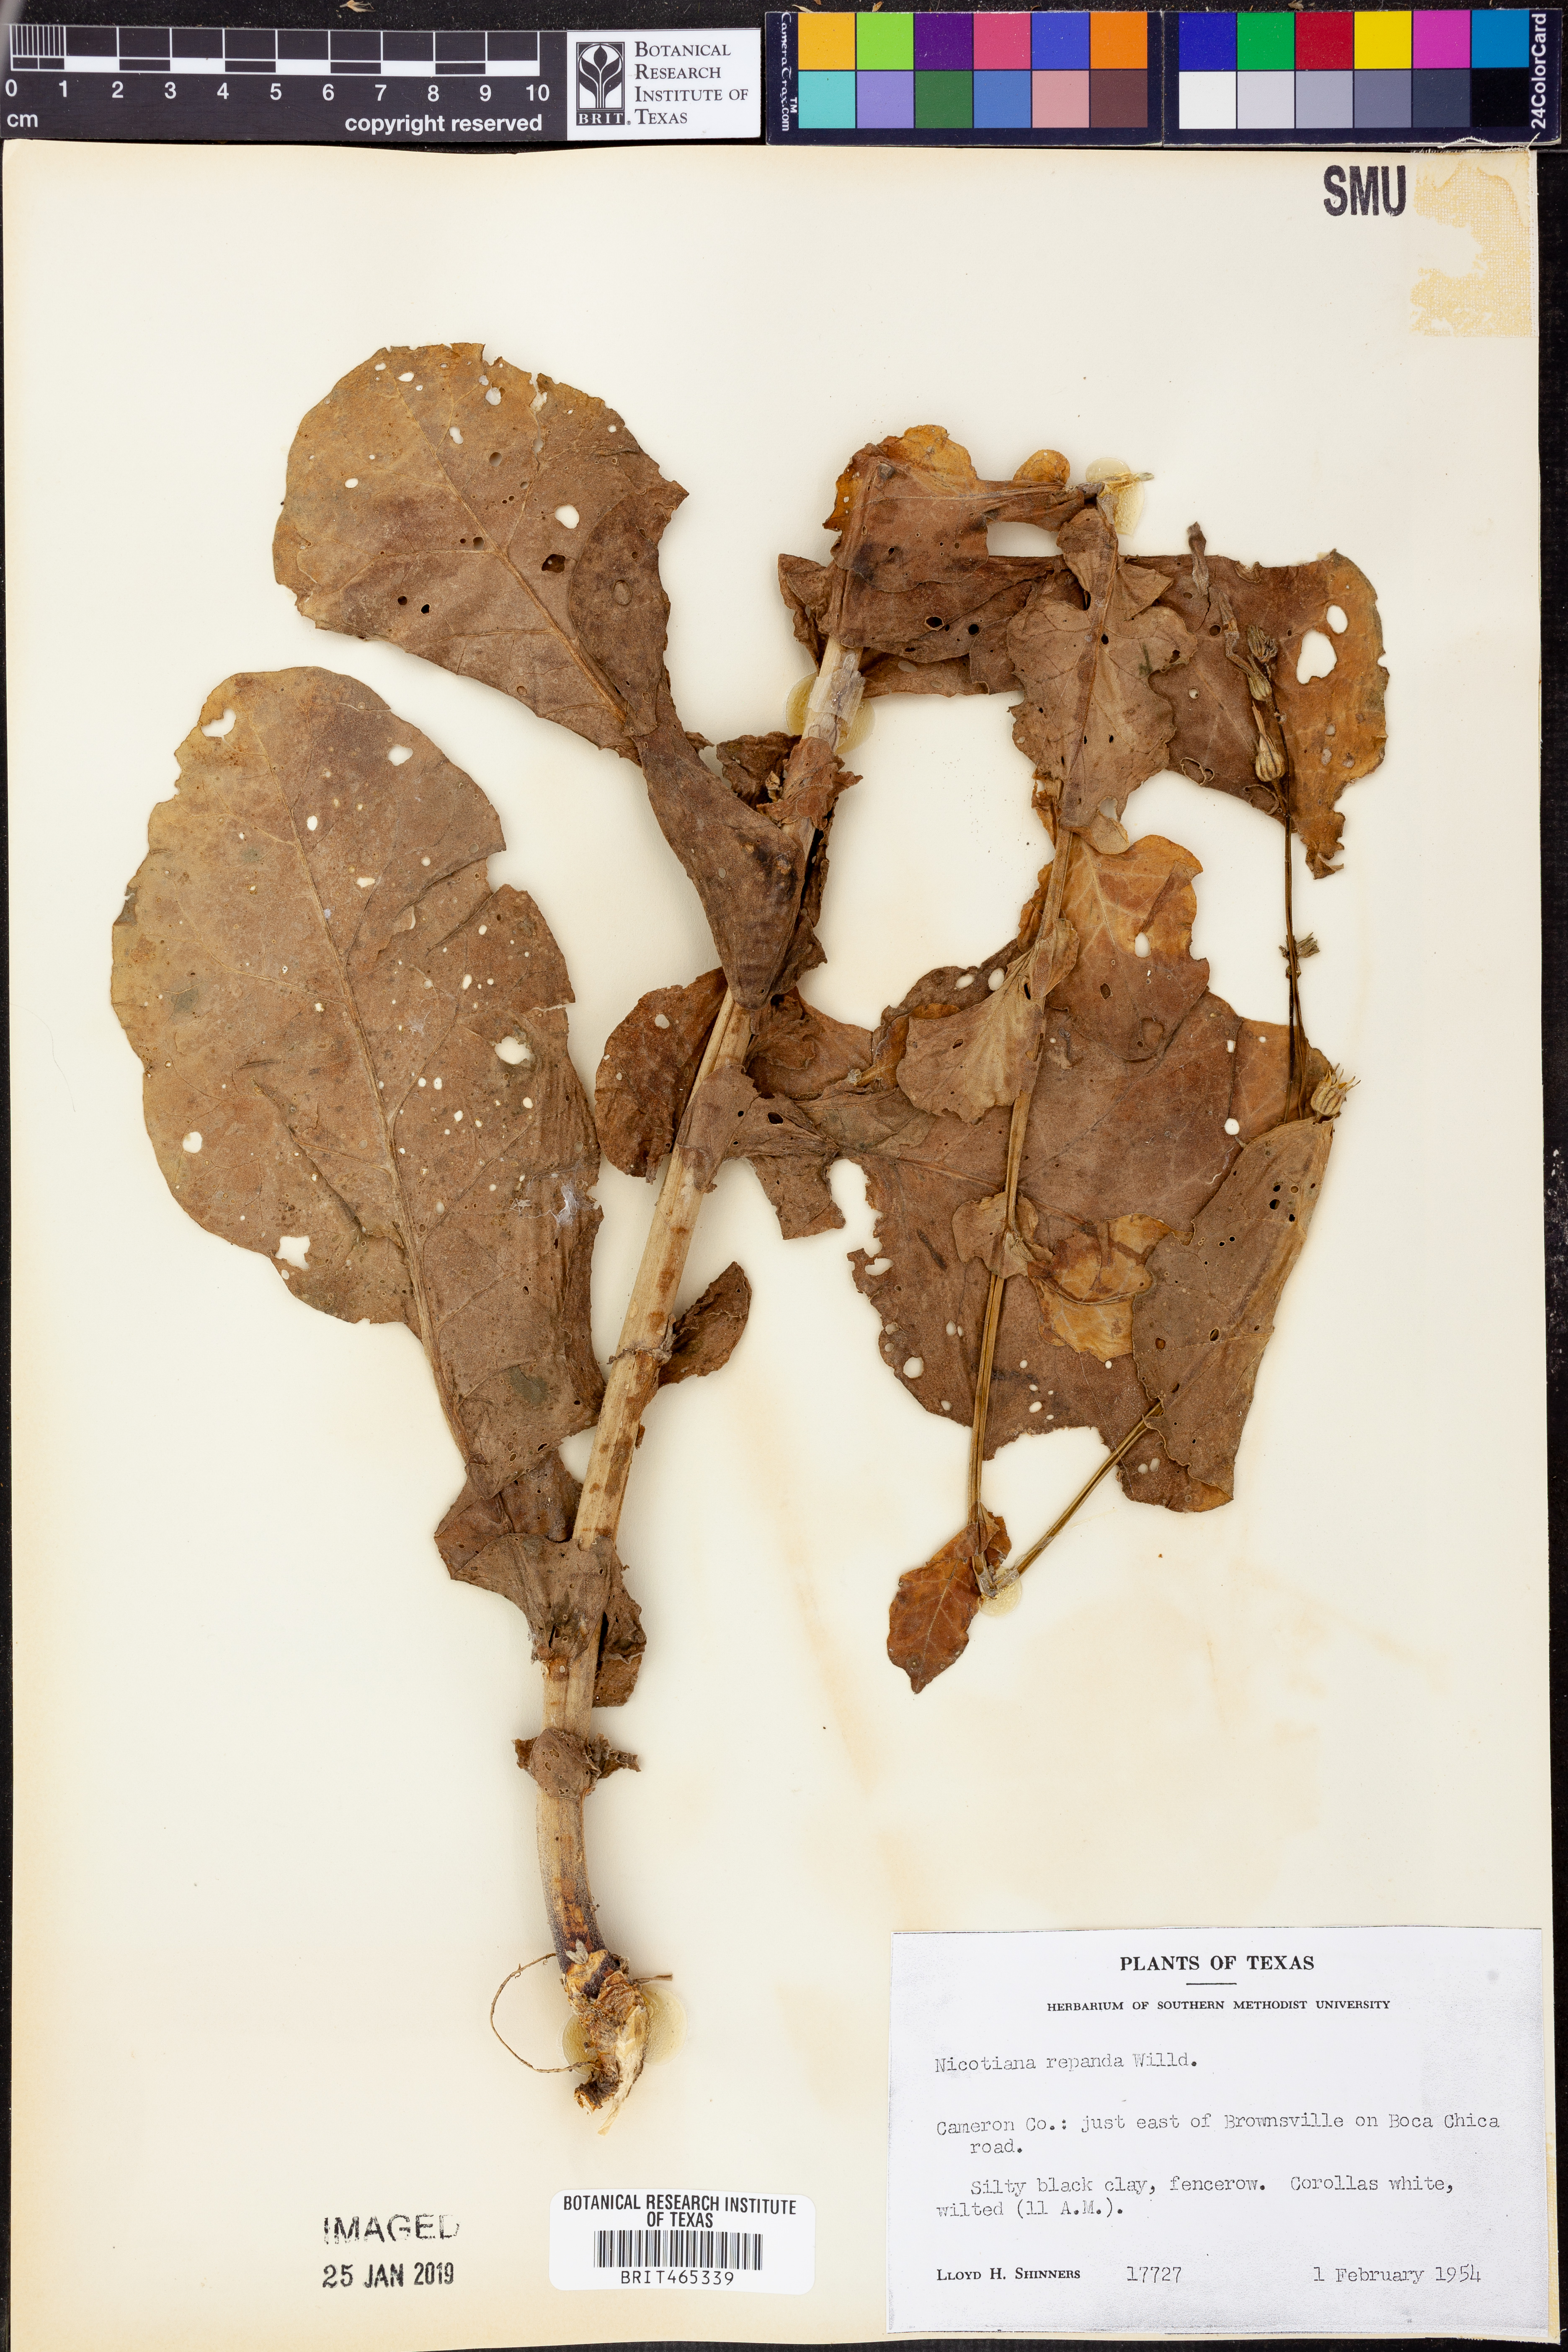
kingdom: Plantae
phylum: Tracheophyta
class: Magnoliopsida
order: Solanales
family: Solanaceae
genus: Nicotiana
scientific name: Nicotiana repanda
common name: Fiddle-leaf tobacco
